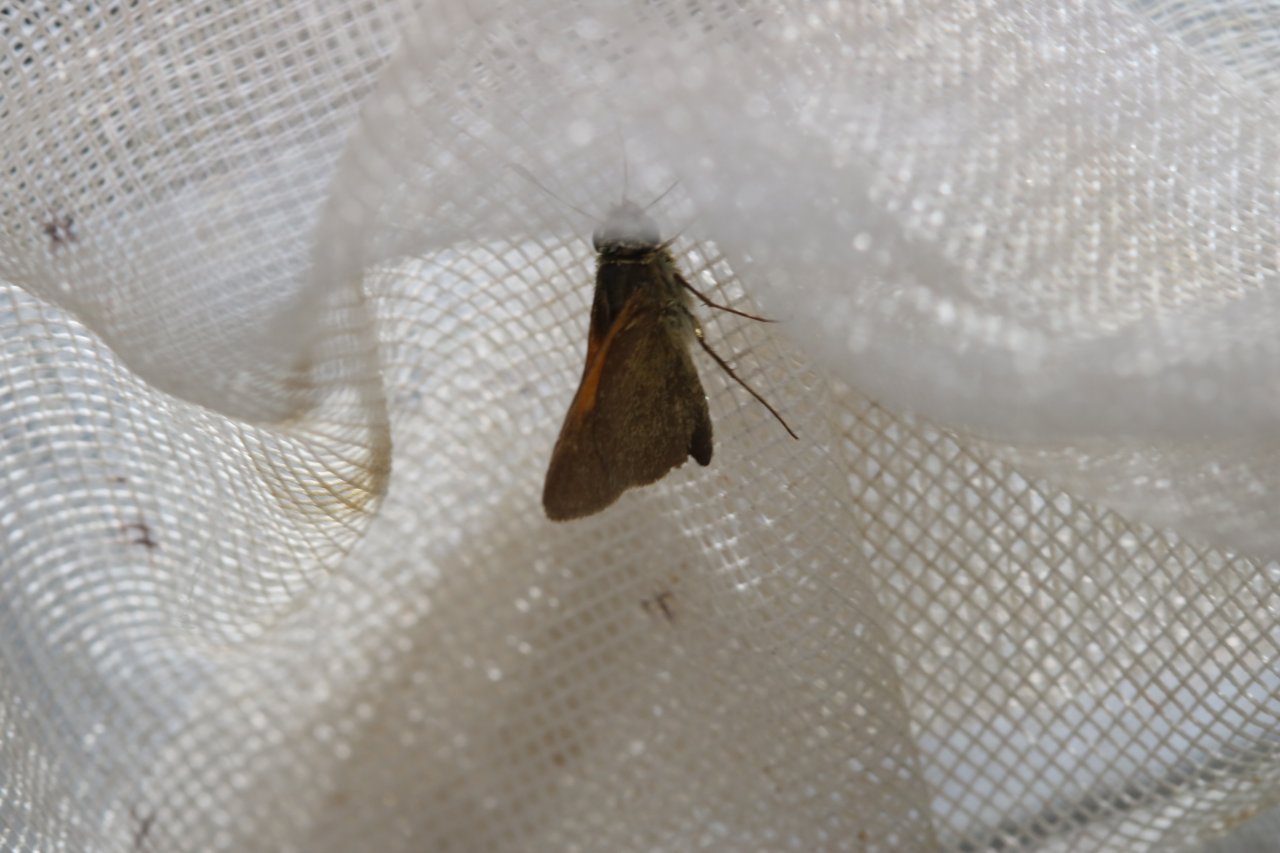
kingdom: Animalia
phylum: Arthropoda
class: Insecta
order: Lepidoptera
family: Hesperiidae
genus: Polites
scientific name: Polites themistocles
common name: Tawny-edged Skipper
